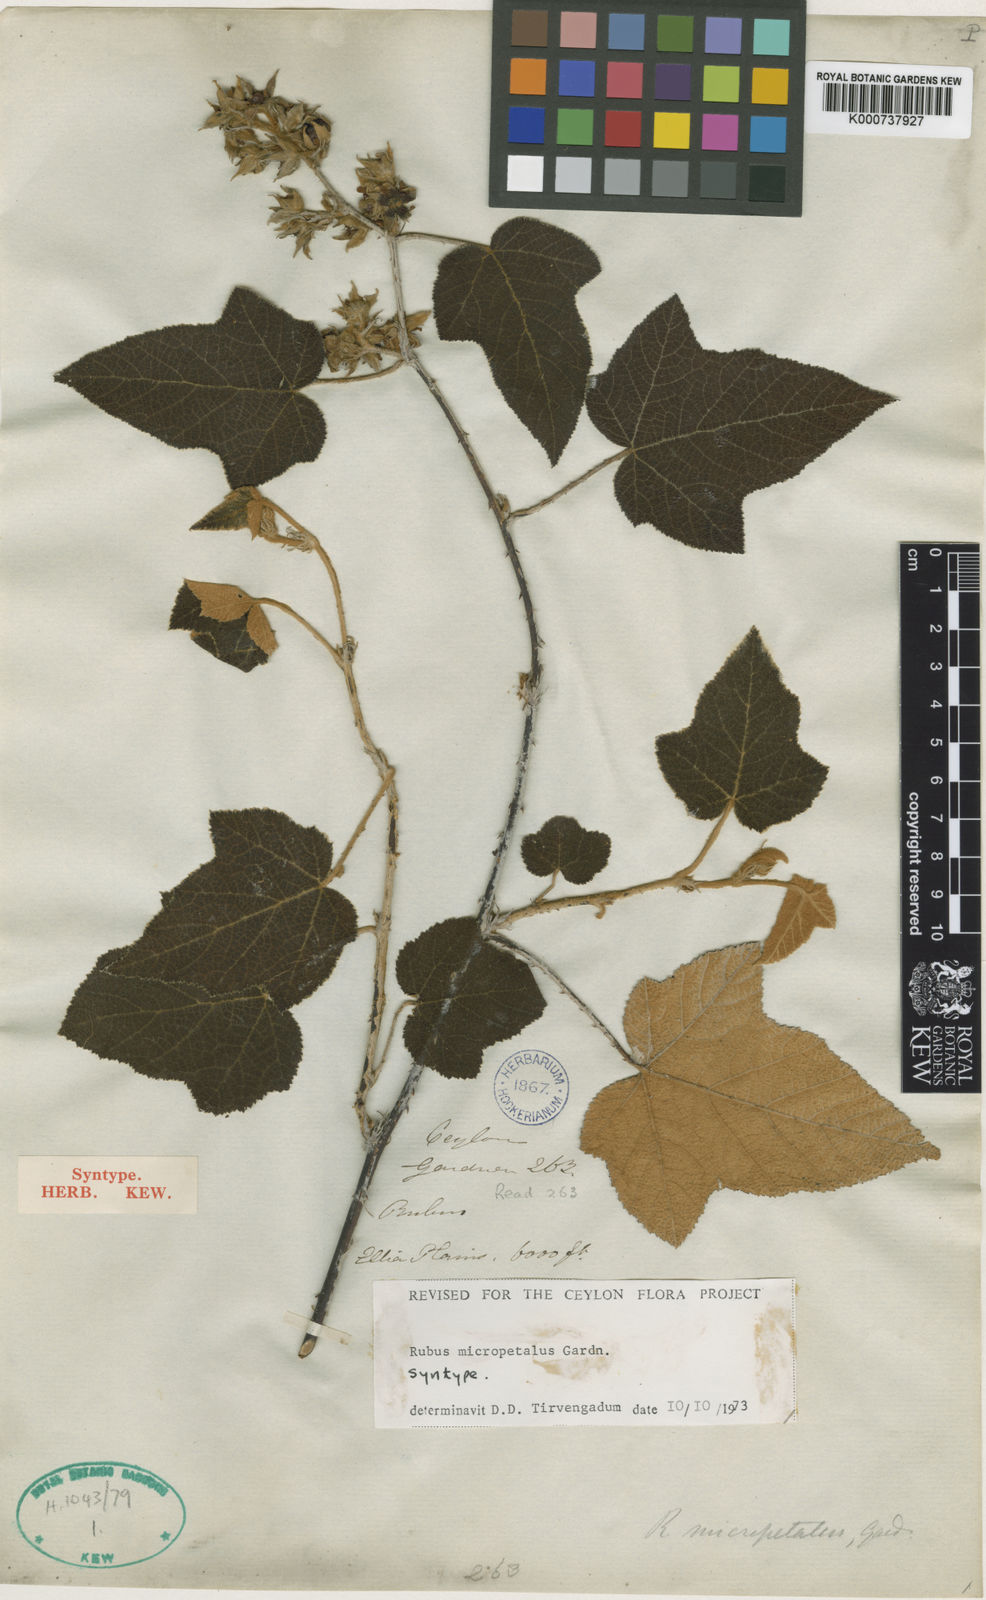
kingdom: Plantae
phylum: Tracheophyta
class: Magnoliopsida
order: Rosales
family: Rosaceae
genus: Rubus
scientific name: Rubus micropetalus
